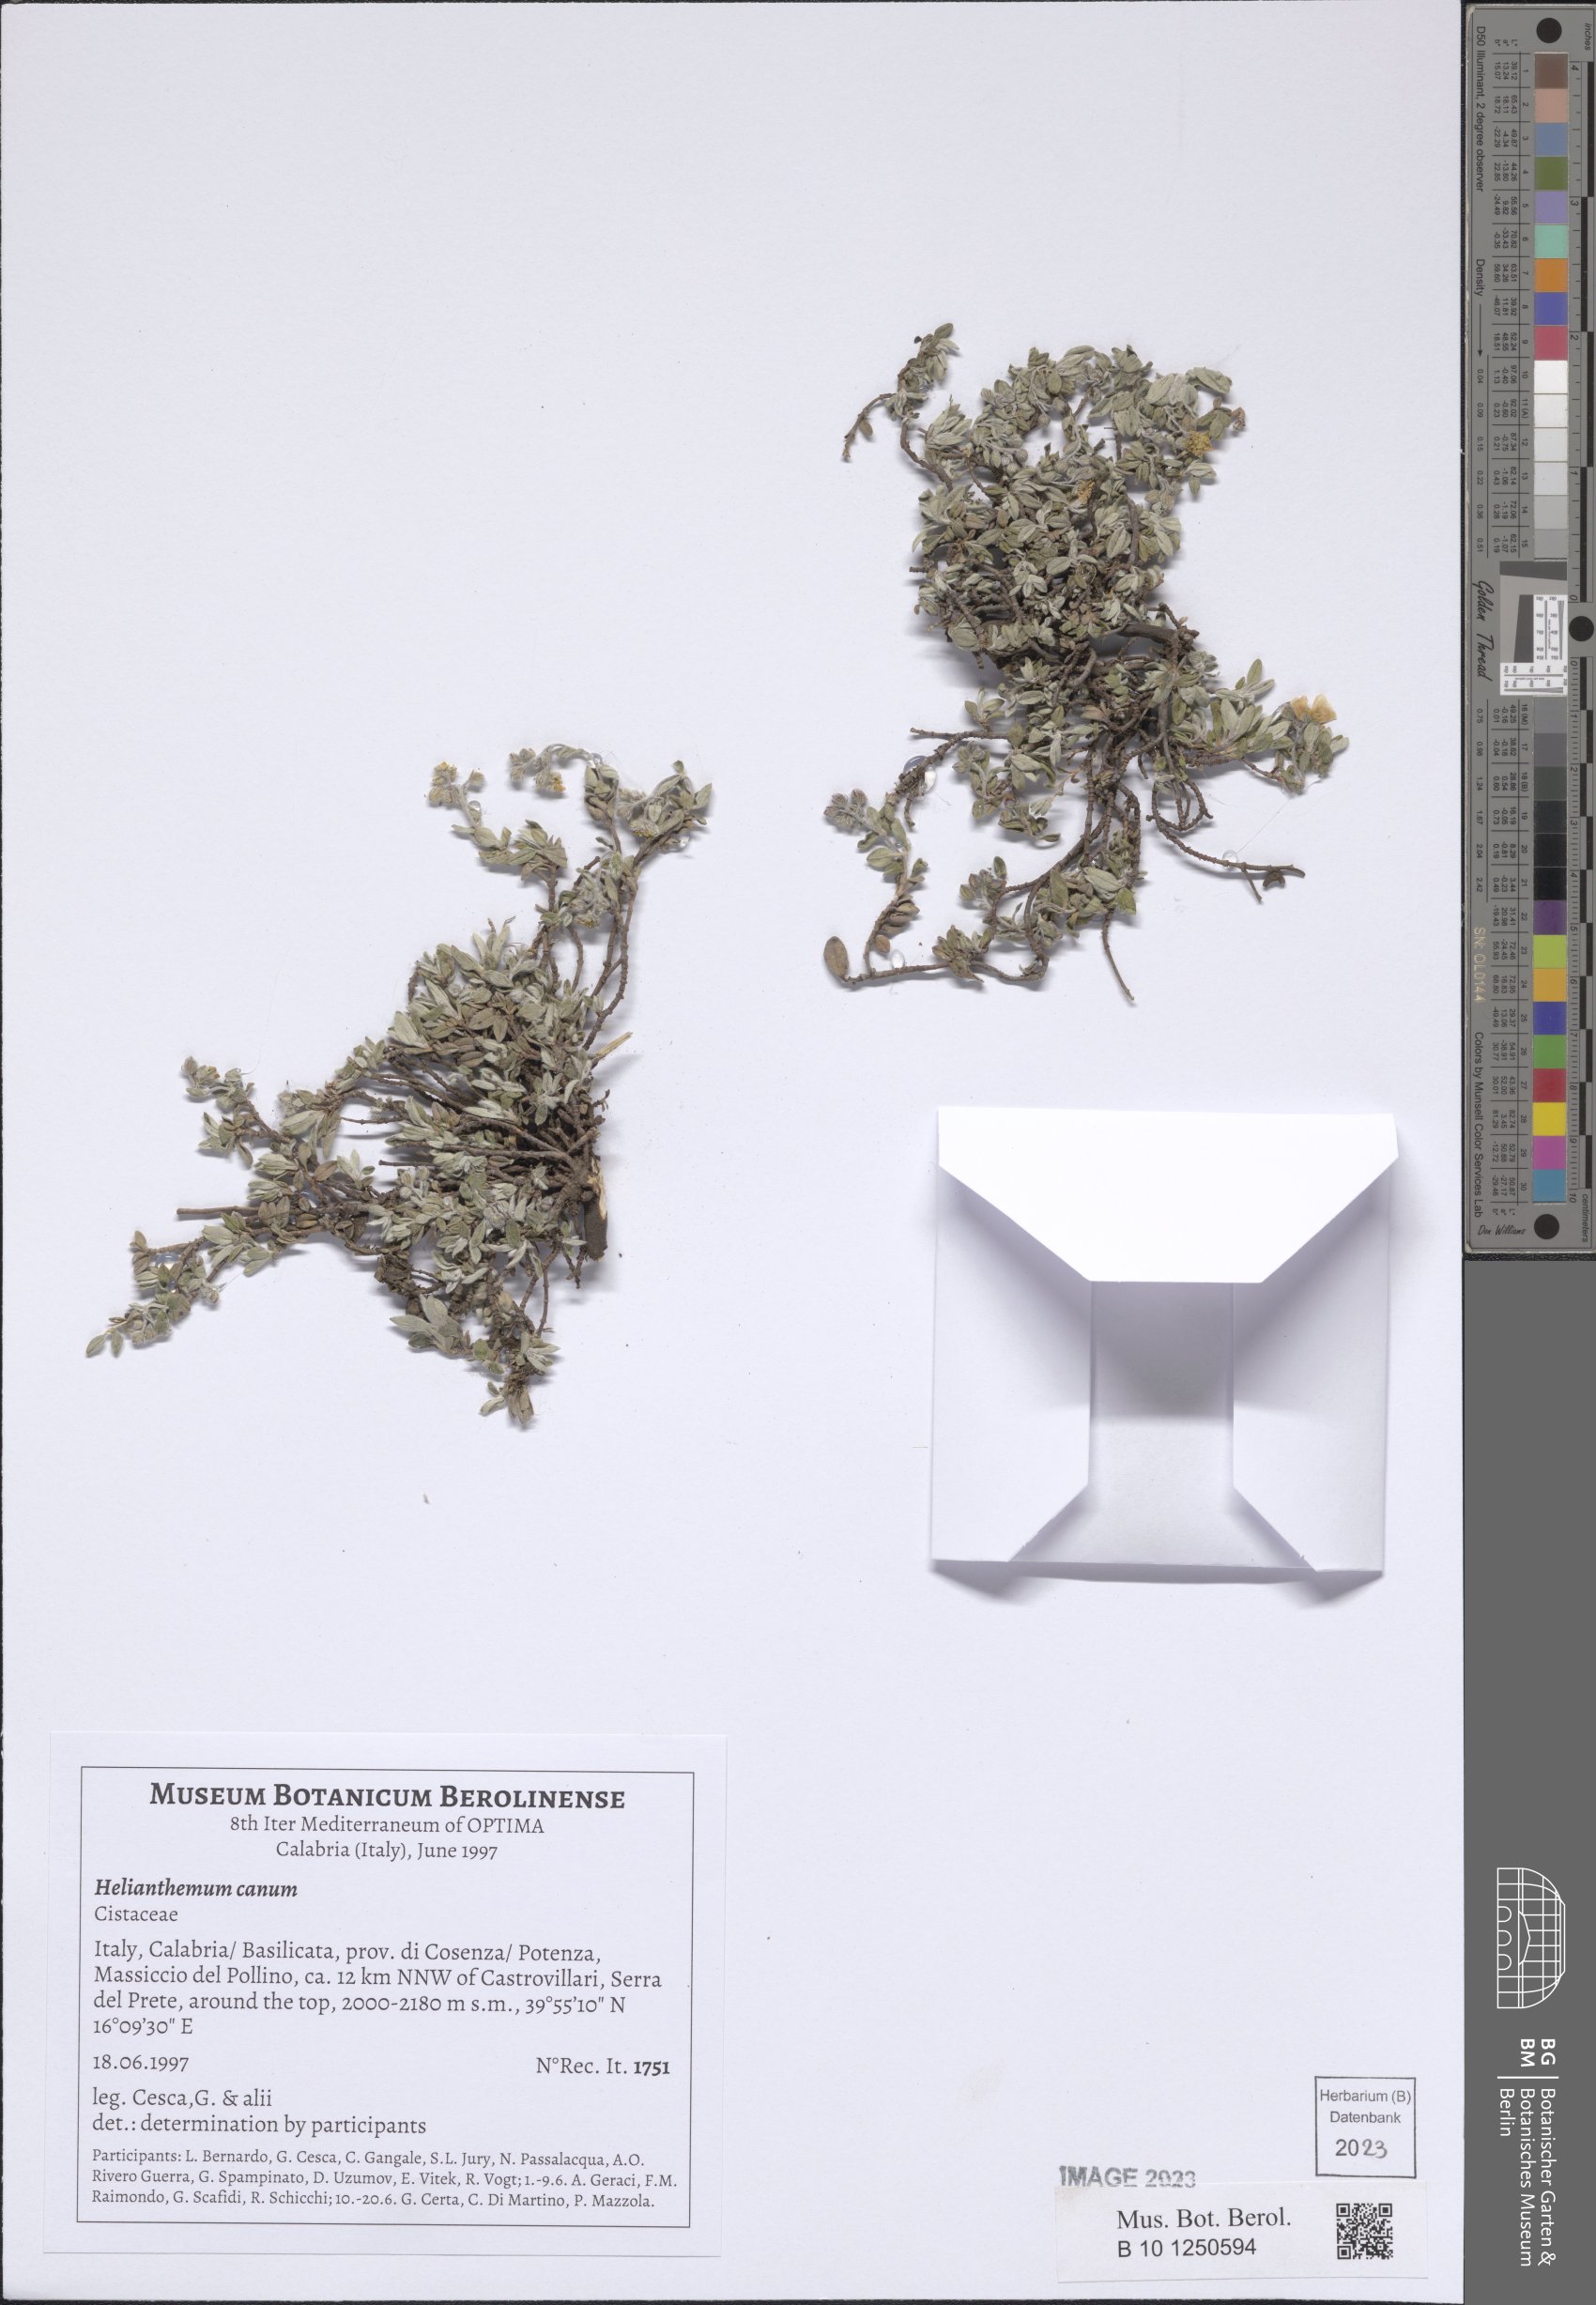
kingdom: Plantae
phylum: Tracheophyta
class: Magnoliopsida
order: Malvales
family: Cistaceae
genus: Helianthemum
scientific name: Helianthemum canum
